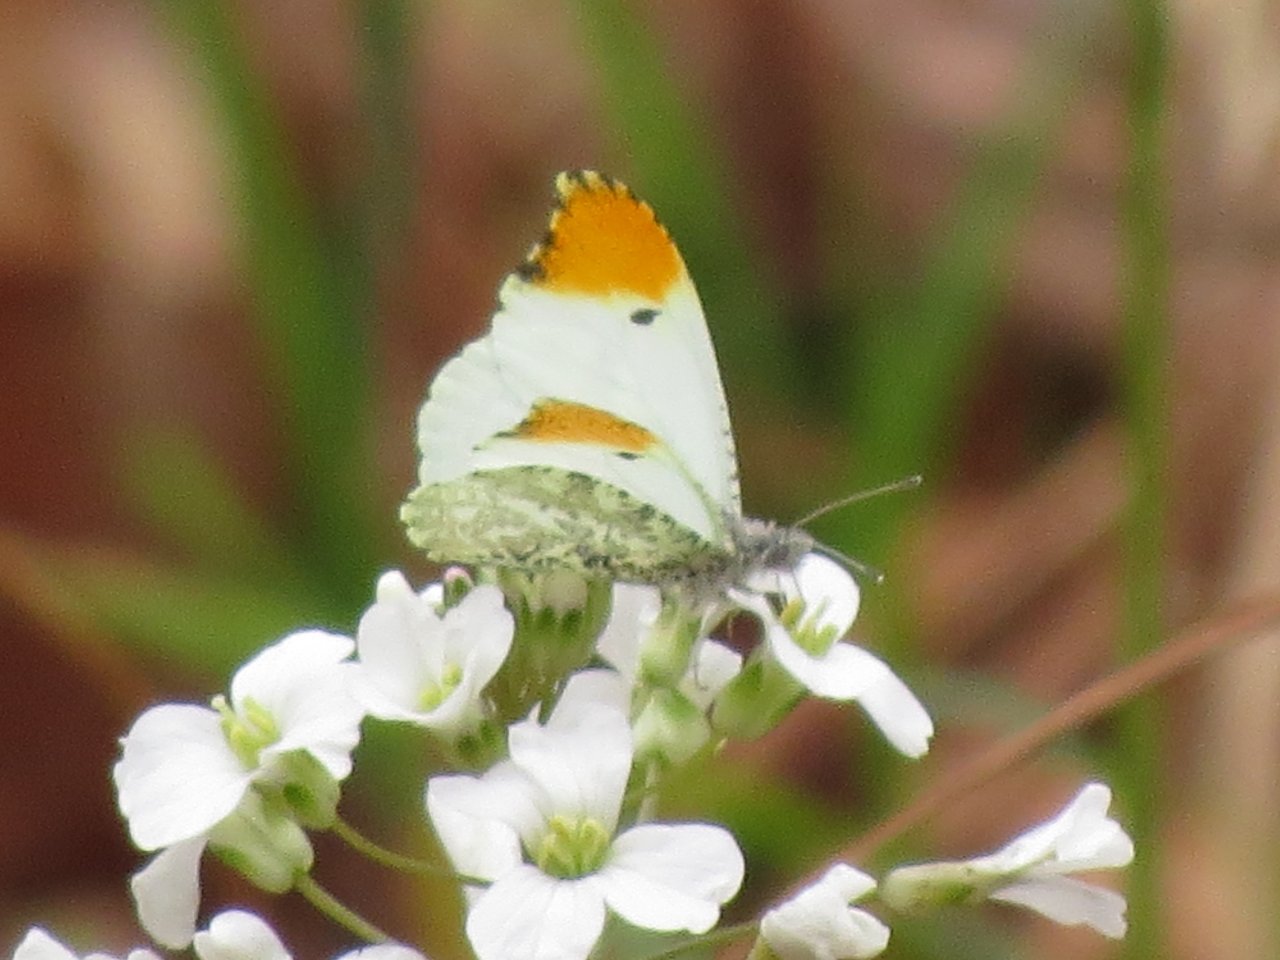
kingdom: Animalia
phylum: Arthropoda
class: Insecta
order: Lepidoptera
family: Pieridae
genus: Anthocharis
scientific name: Anthocharis midea
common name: Falcate Orangetip
